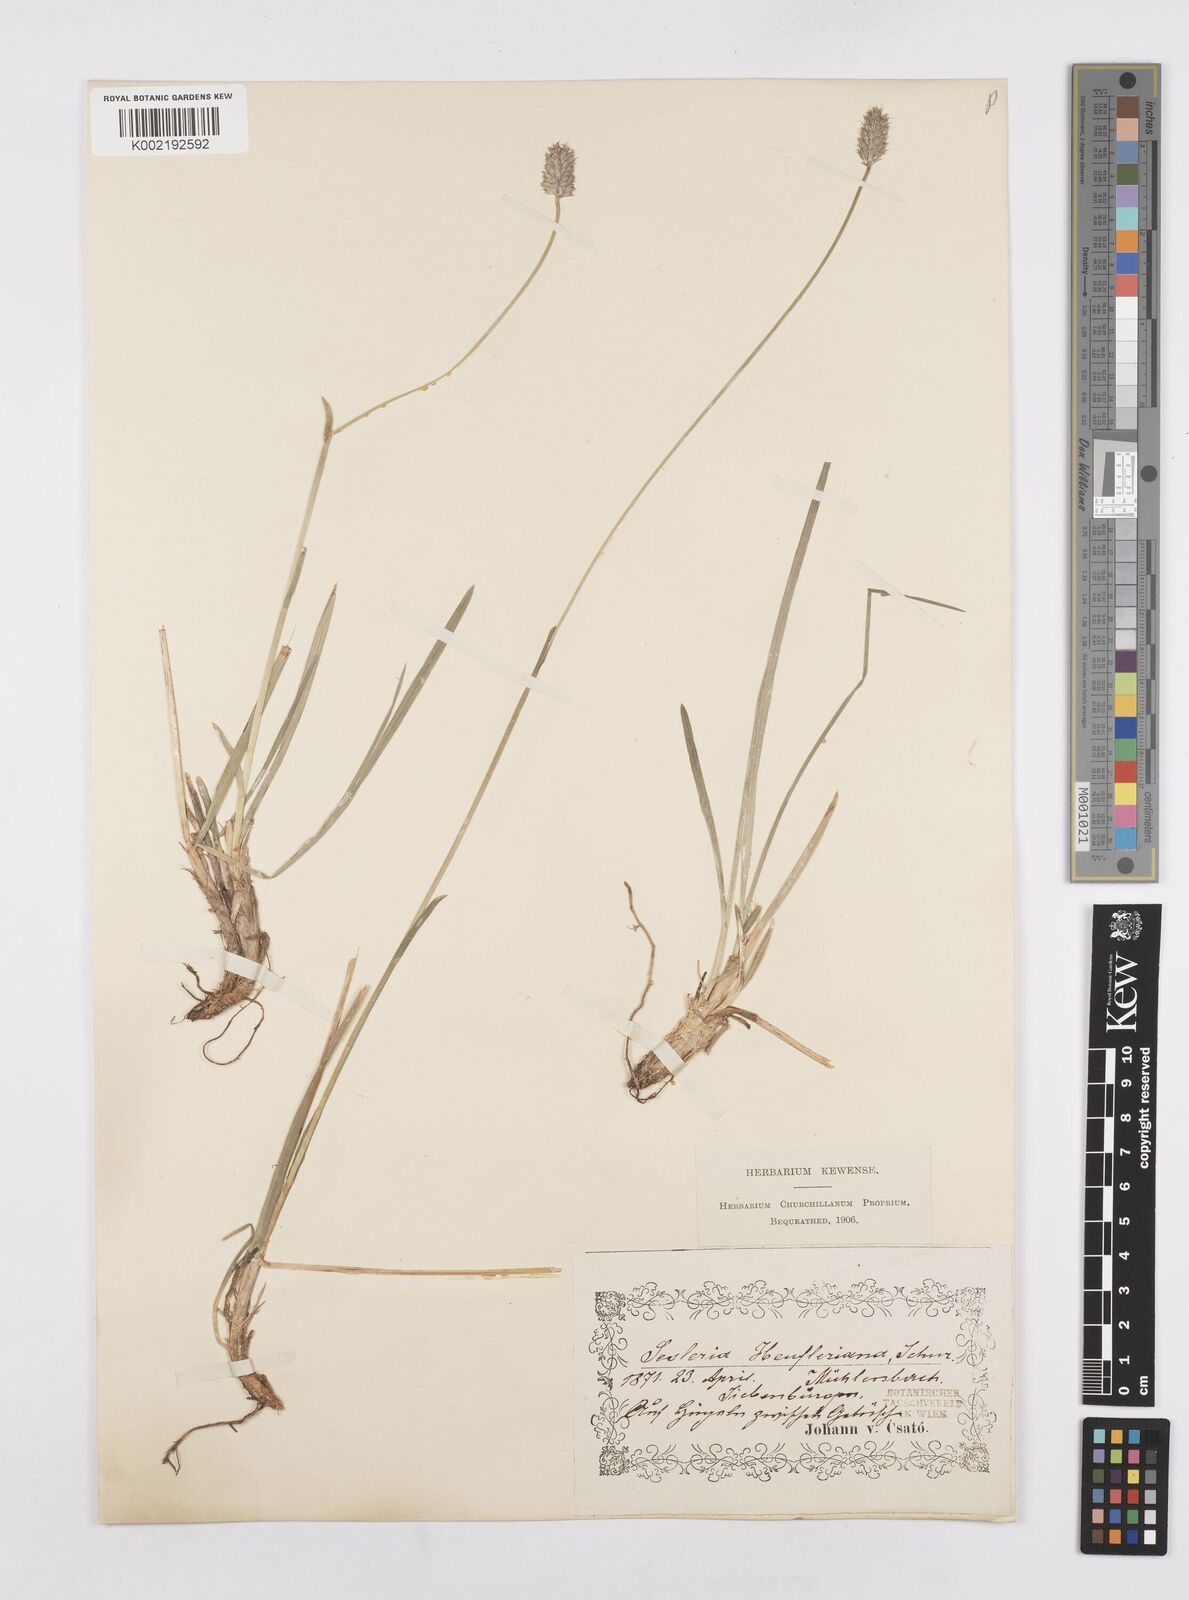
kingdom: Plantae
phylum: Tracheophyta
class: Liliopsida
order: Poales
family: Poaceae
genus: Sesleria
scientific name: Sesleria heufleriana
